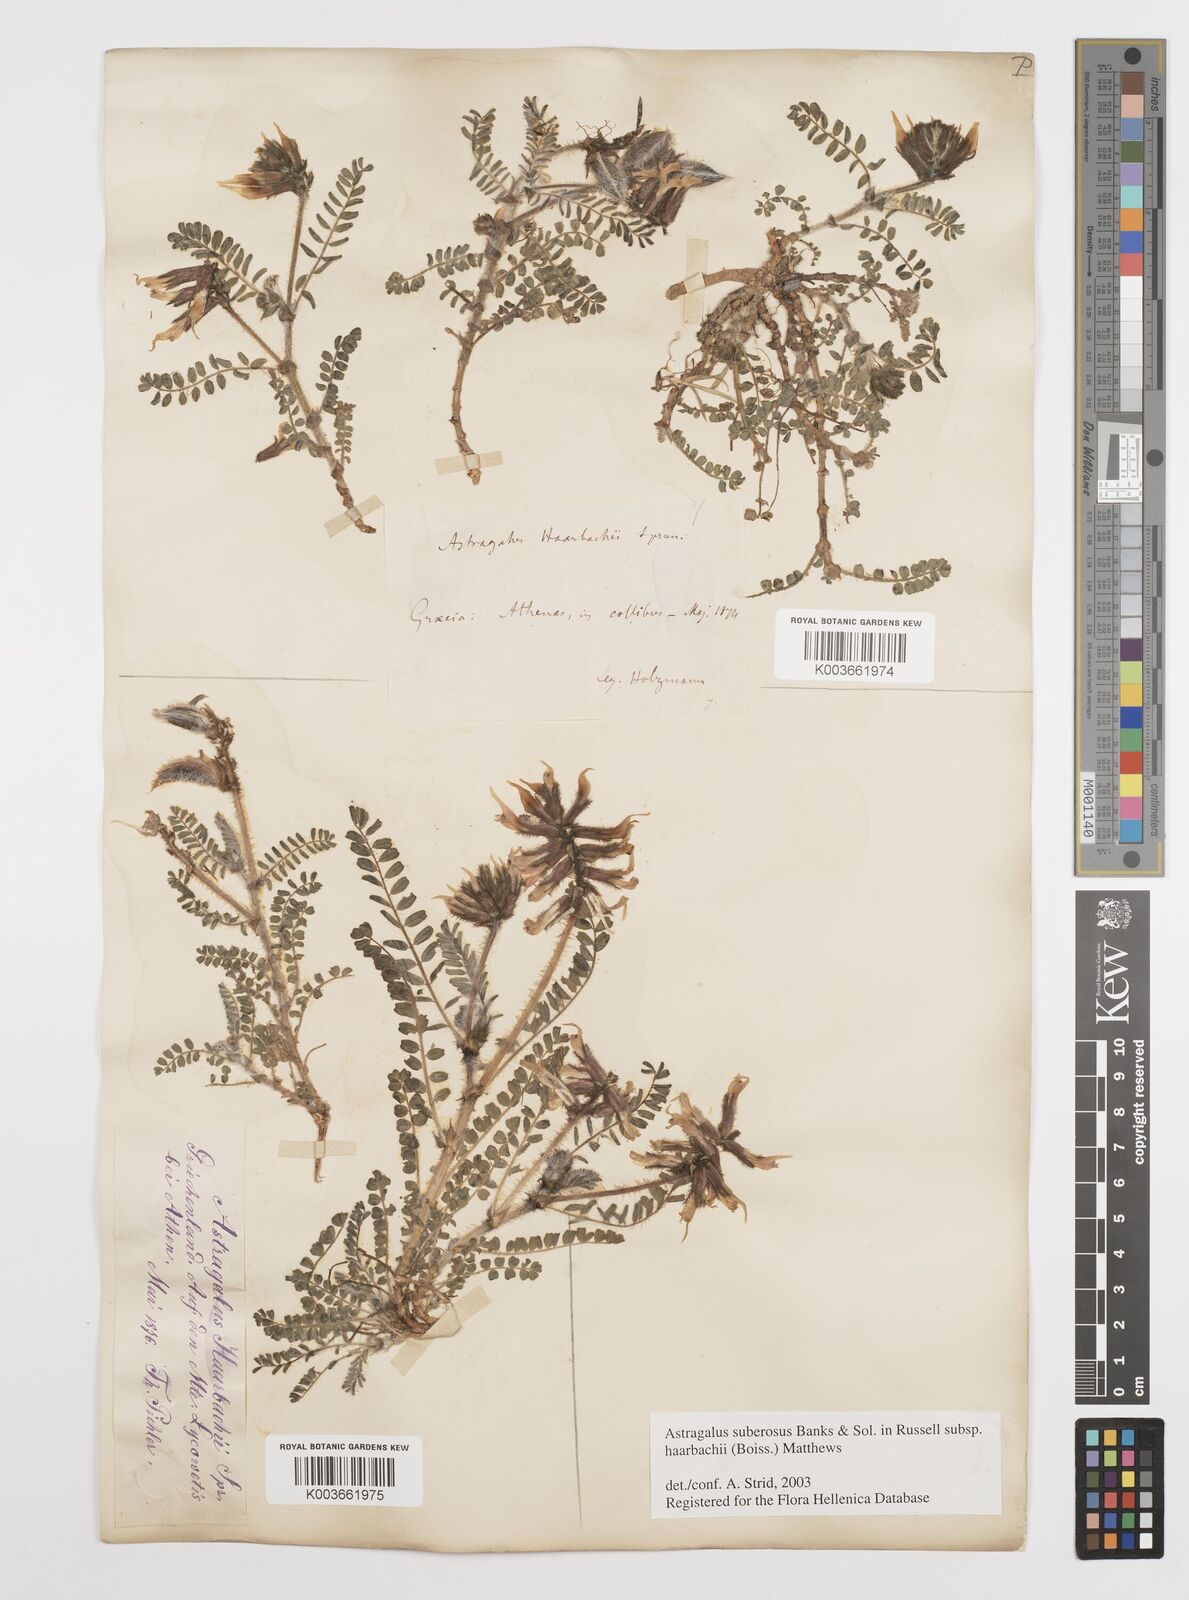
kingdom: Plantae
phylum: Tracheophyta
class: Magnoliopsida
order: Fabales
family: Fabaceae
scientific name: Fabaceae
